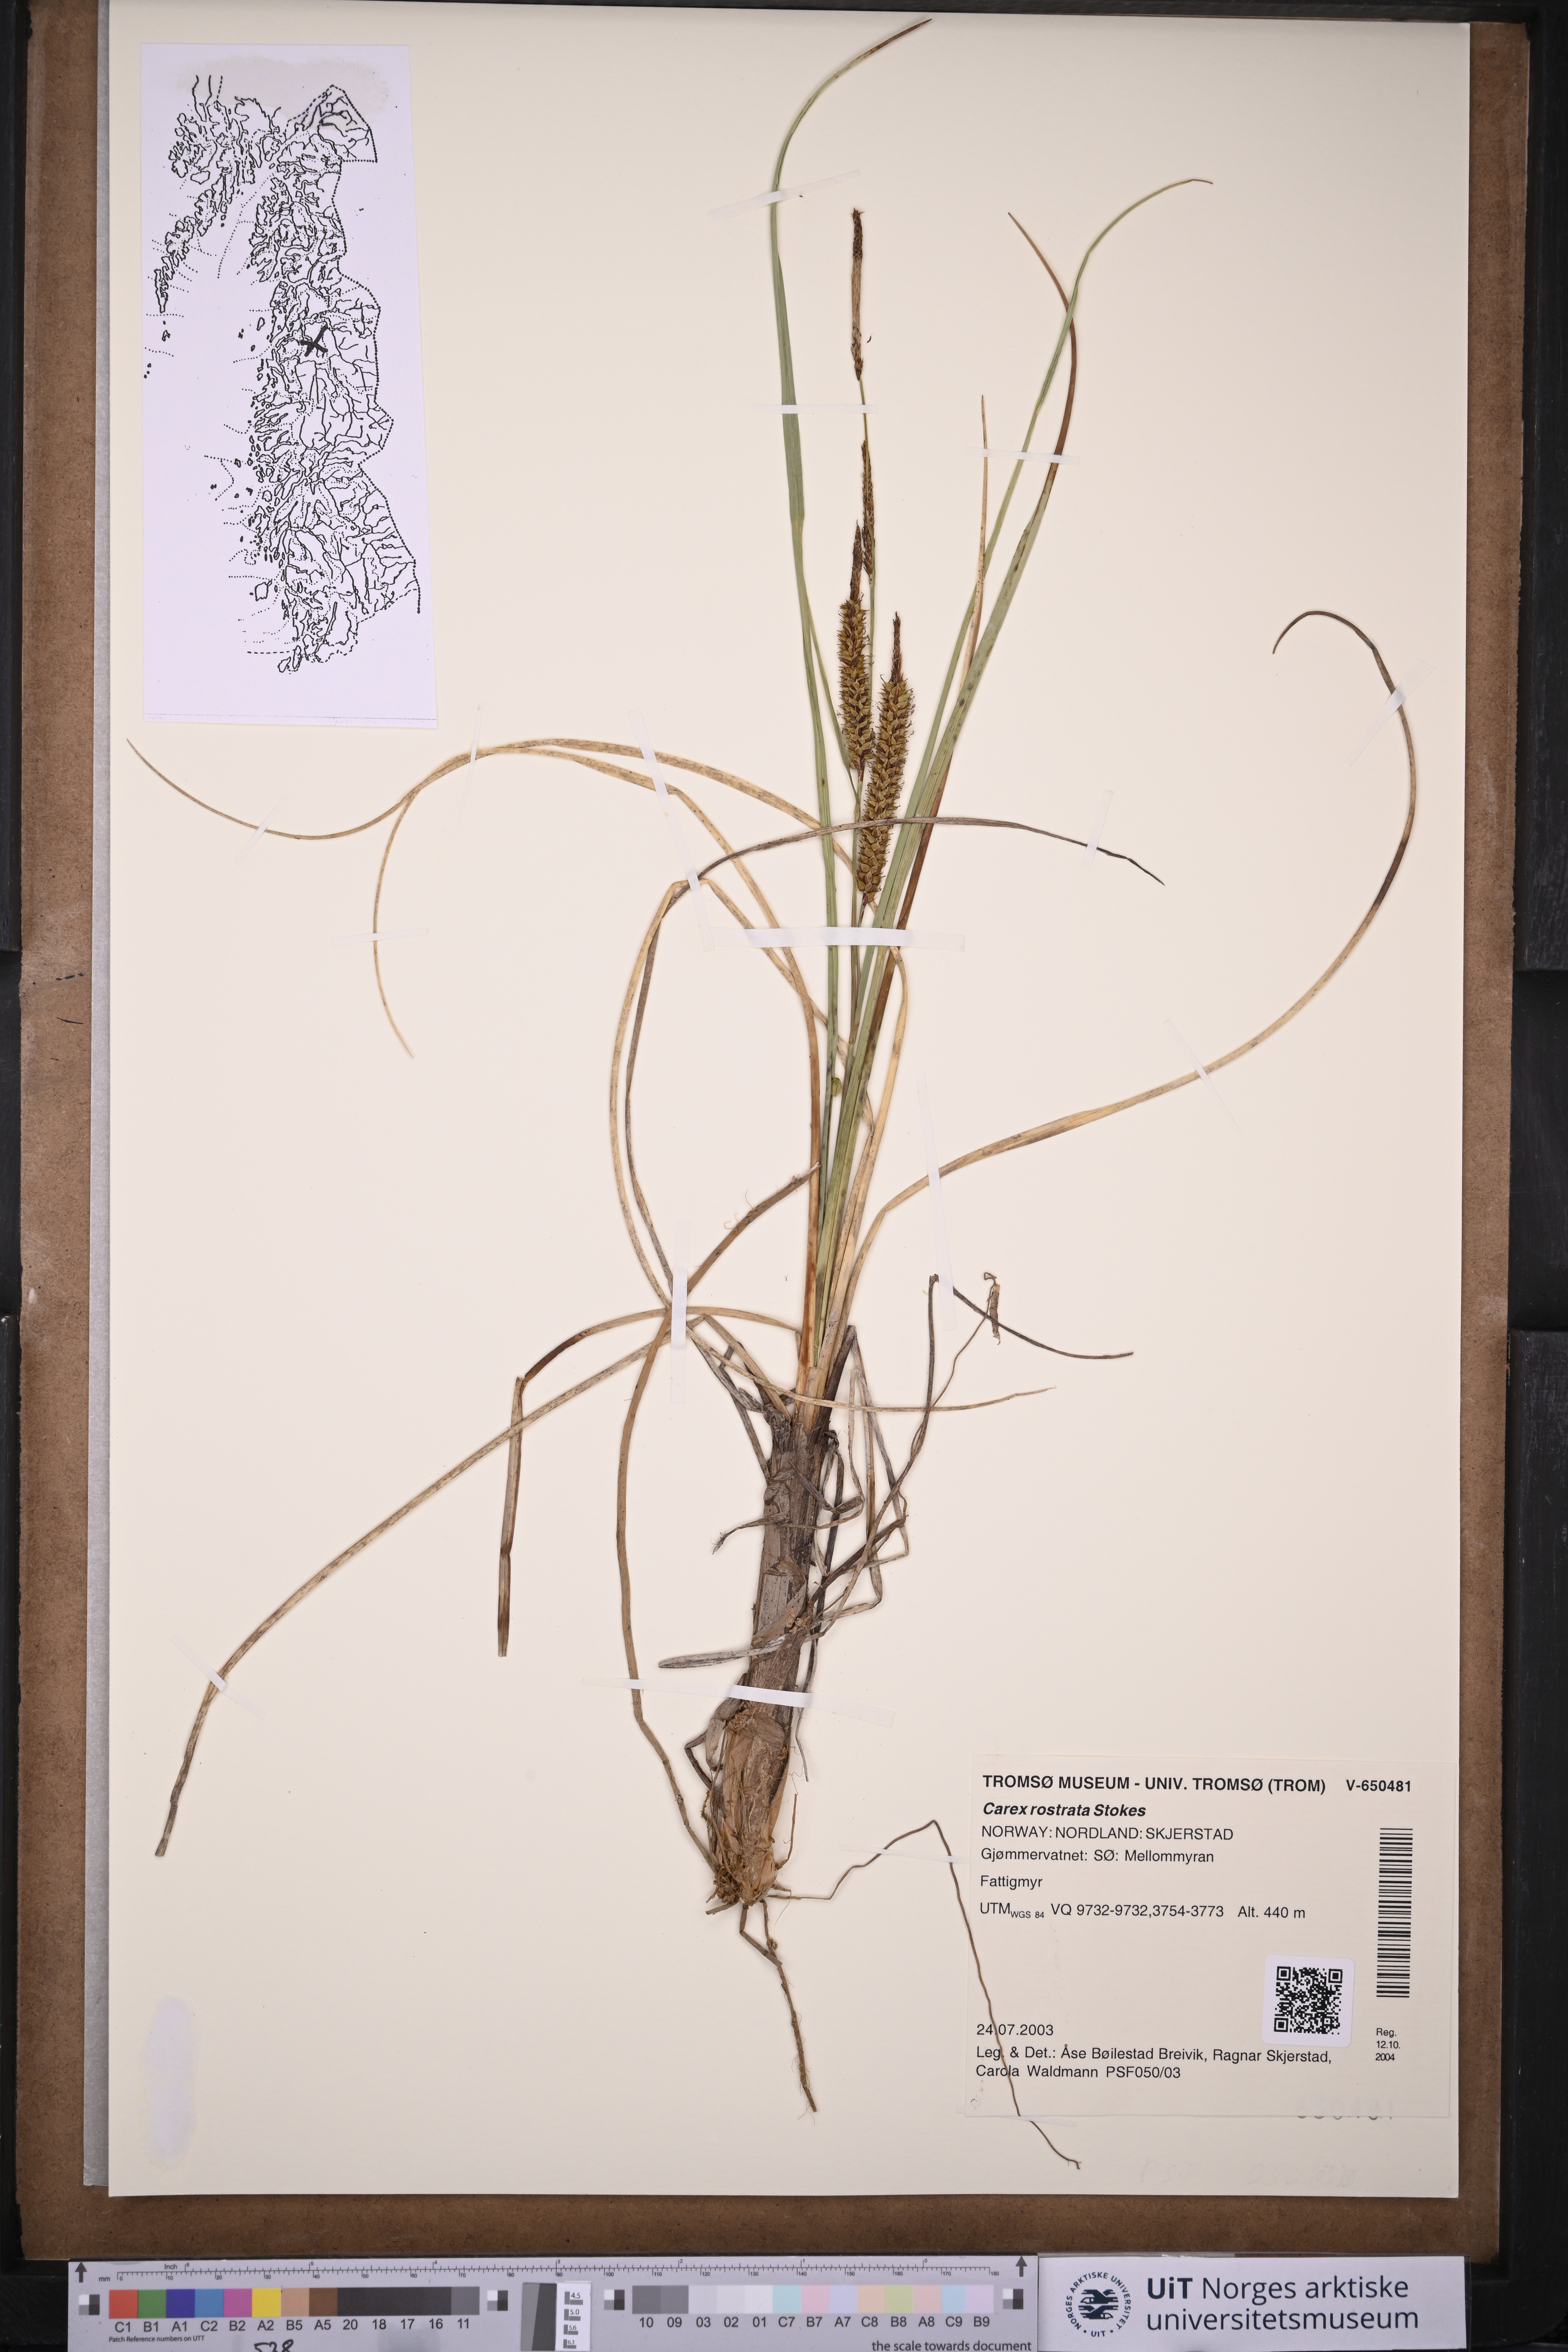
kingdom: Plantae
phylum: Tracheophyta
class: Liliopsida
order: Poales
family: Cyperaceae
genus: Carex
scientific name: Carex rostrata
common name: Bottle sedge
